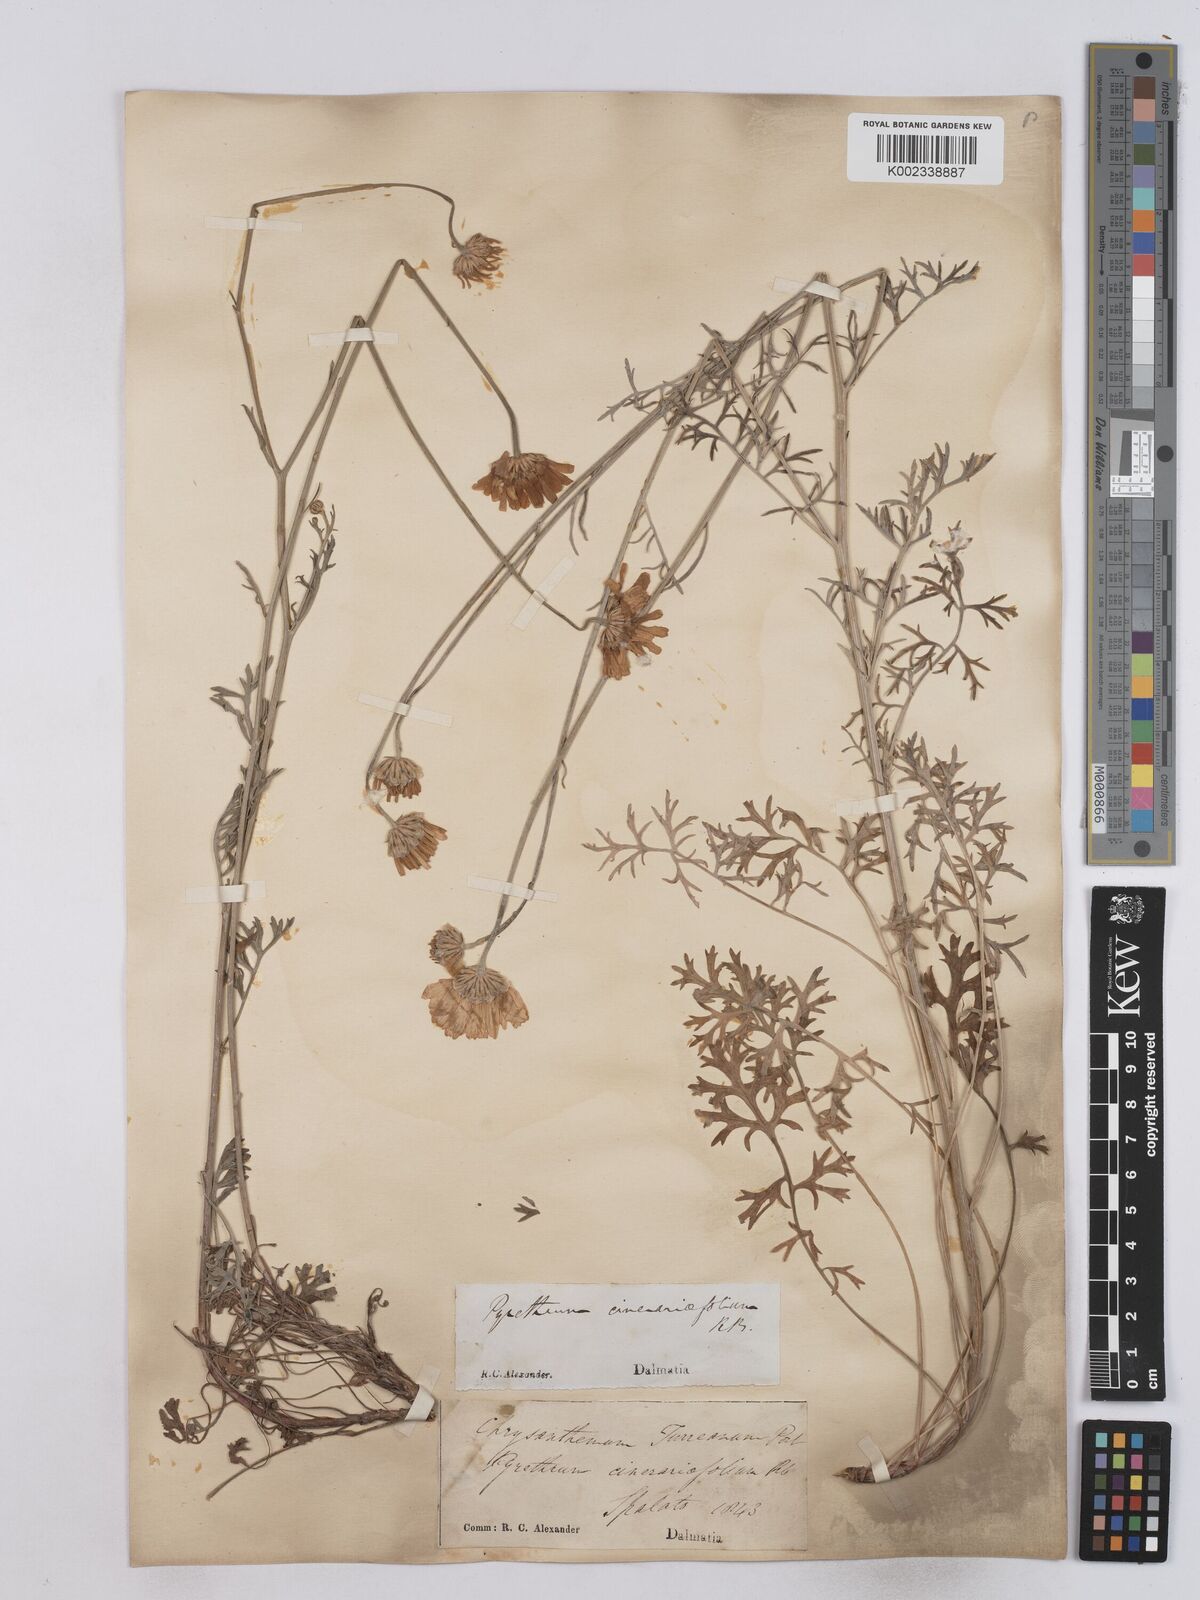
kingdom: Plantae
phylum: Tracheophyta
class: Magnoliopsida
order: Asterales
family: Asteraceae
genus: Tanacetum
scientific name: Tanacetum cinerariifolium
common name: Dalmatian pyrethrum
